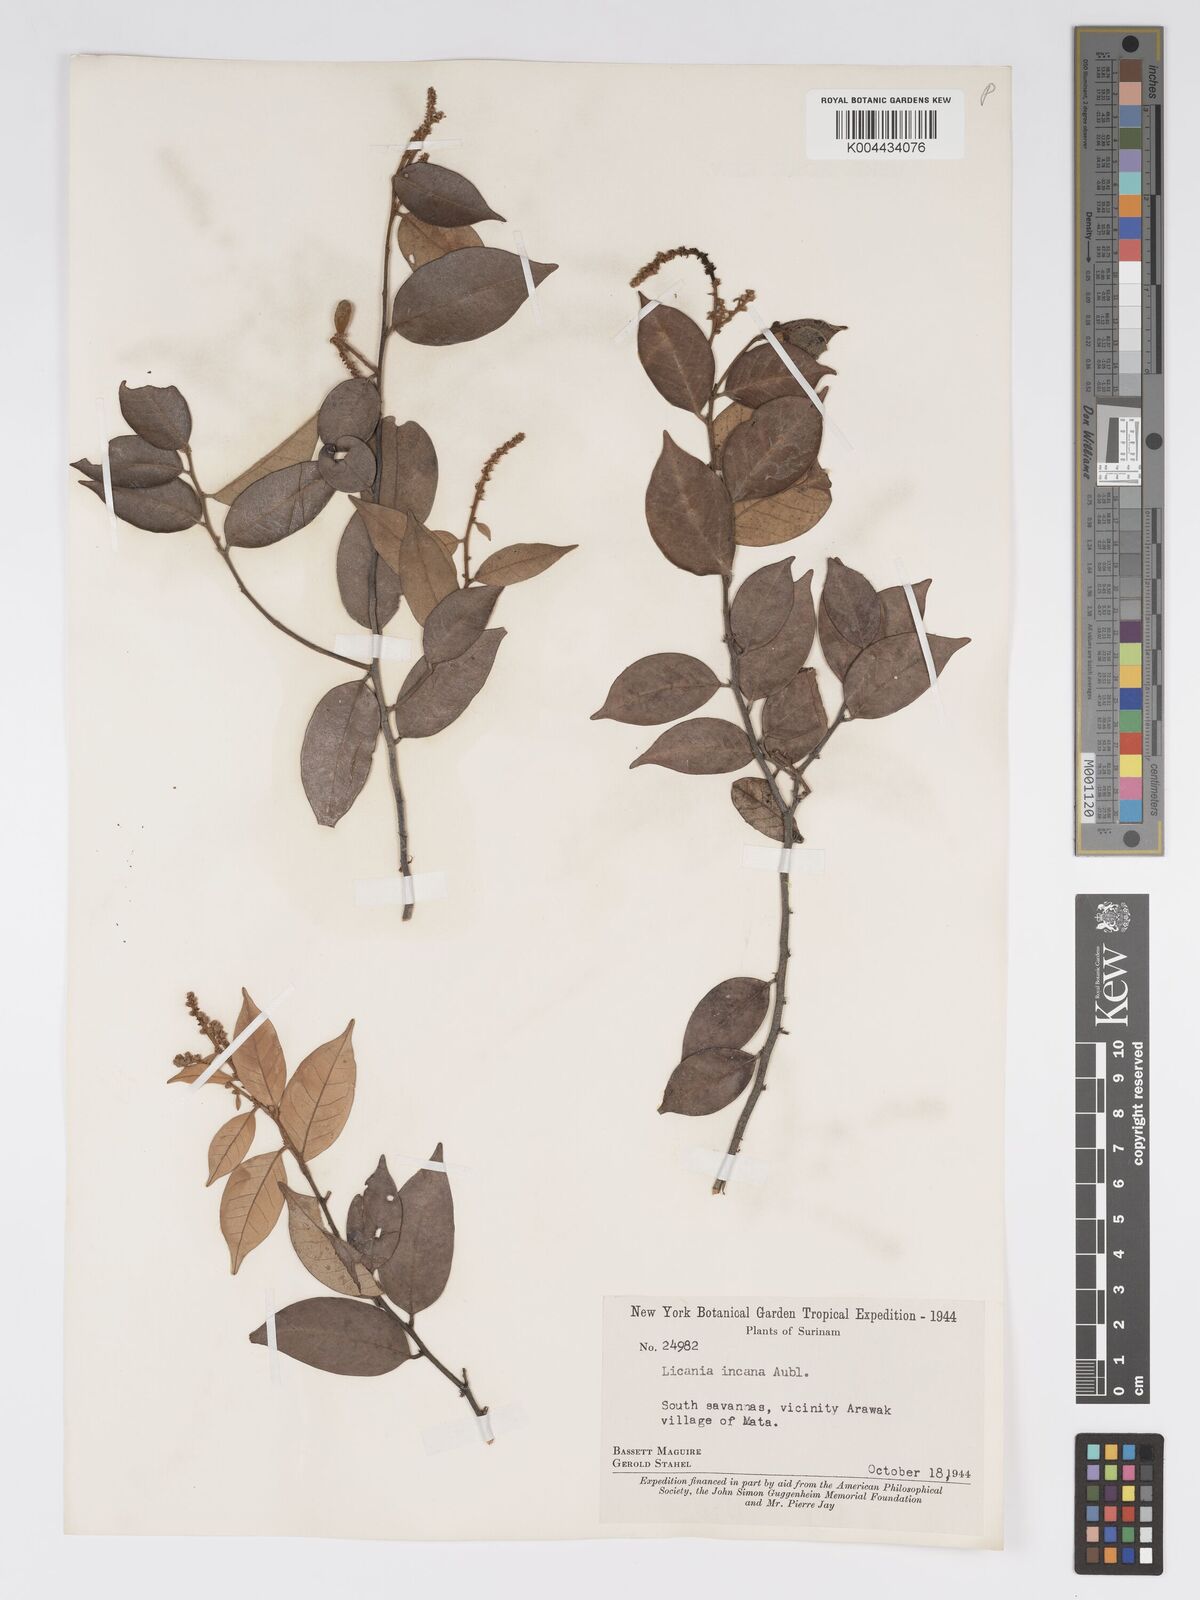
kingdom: Plantae
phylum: Tracheophyta
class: Magnoliopsida
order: Malpighiales
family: Chrysobalanaceae
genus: Licania
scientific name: Licania incana
